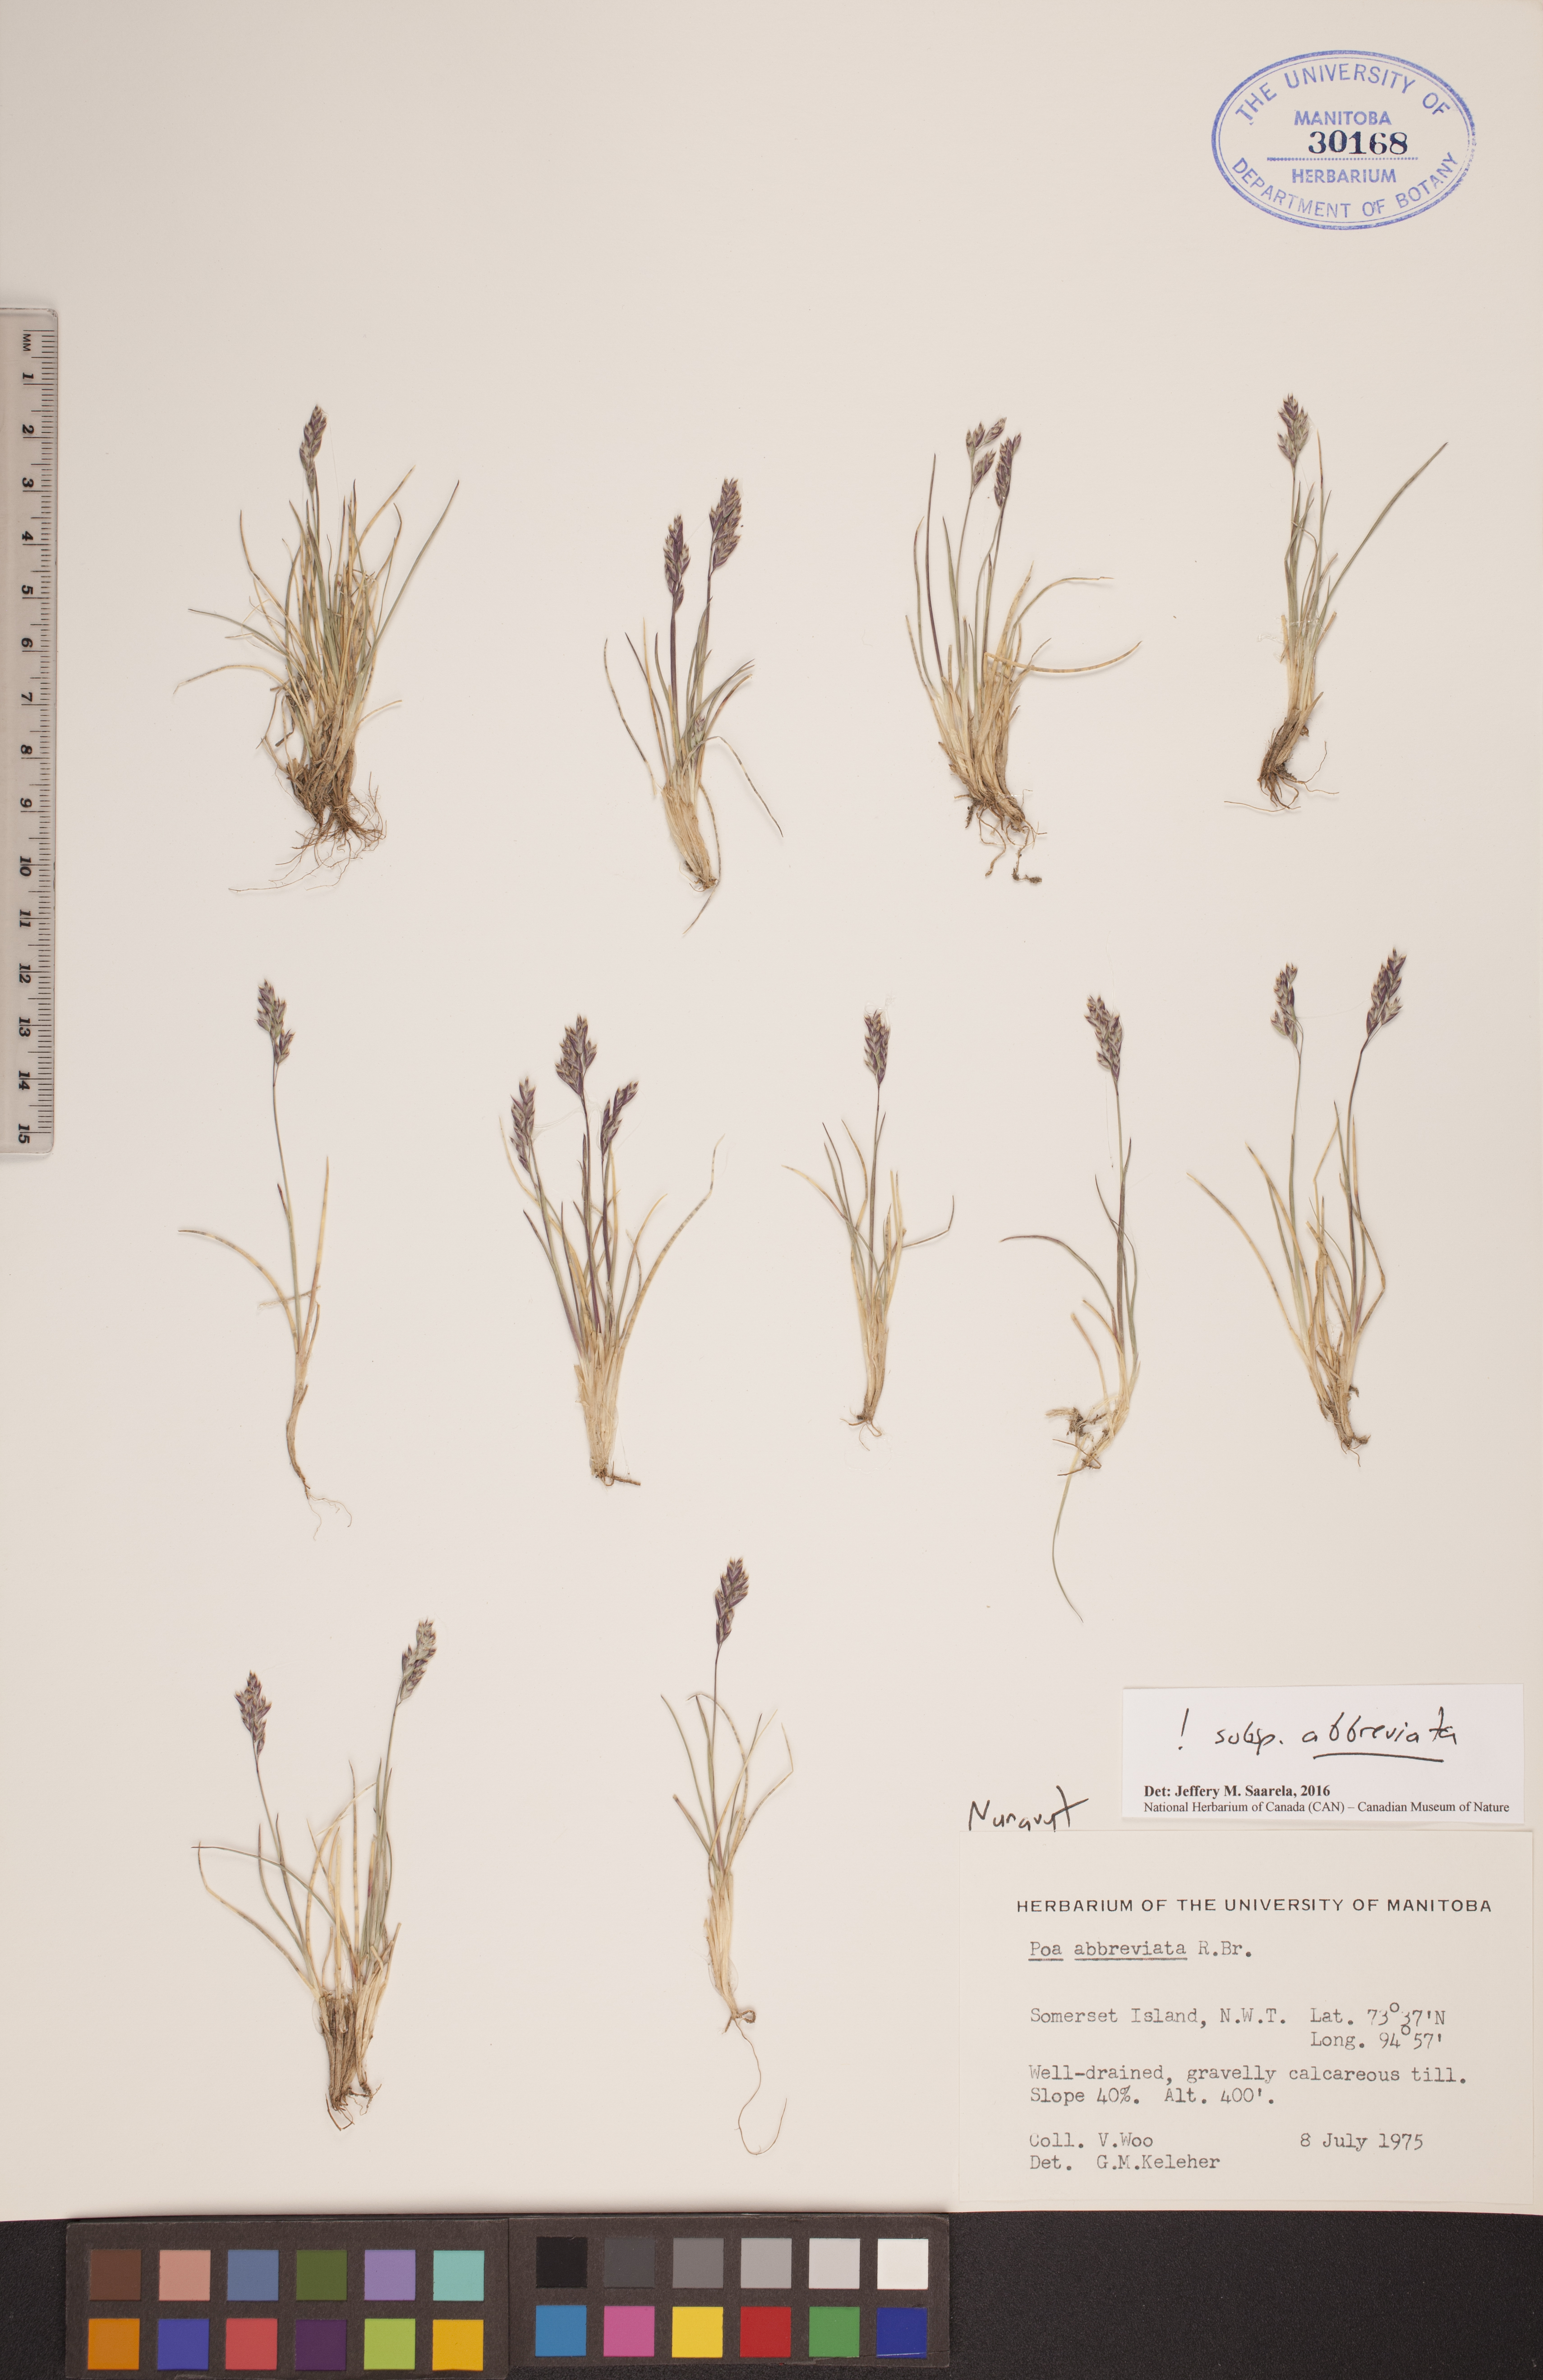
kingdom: Plantae
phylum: Tracheophyta
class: Liliopsida
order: Poales
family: Poaceae
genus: Poa
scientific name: Poa abbreviata
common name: Abbreviated bluegrass
